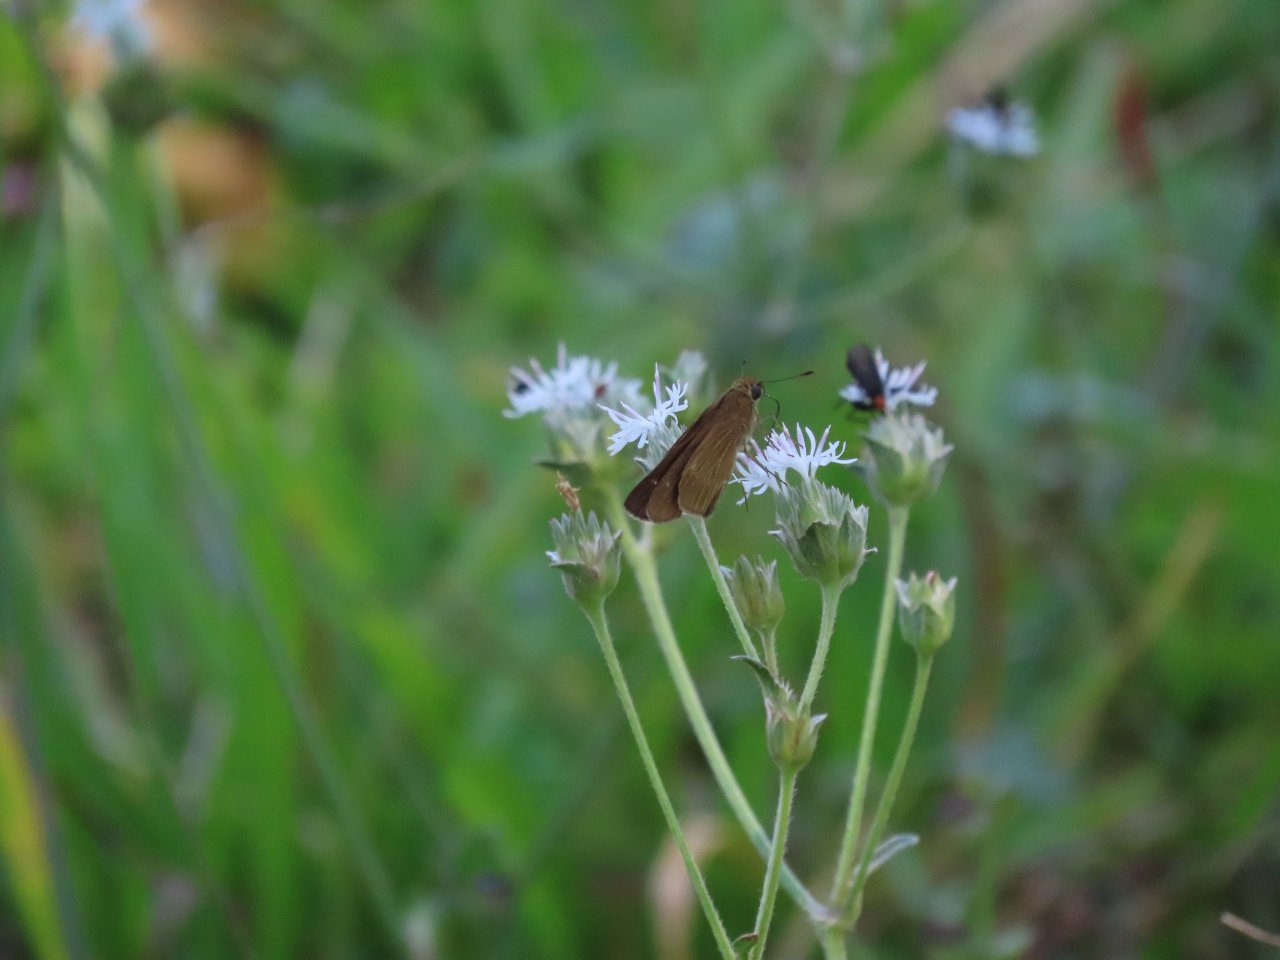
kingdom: Animalia
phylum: Arthropoda
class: Insecta
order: Lepidoptera
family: Hesperiidae
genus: Panoquina
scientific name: Panoquina ocola
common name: Ocola Skipper
